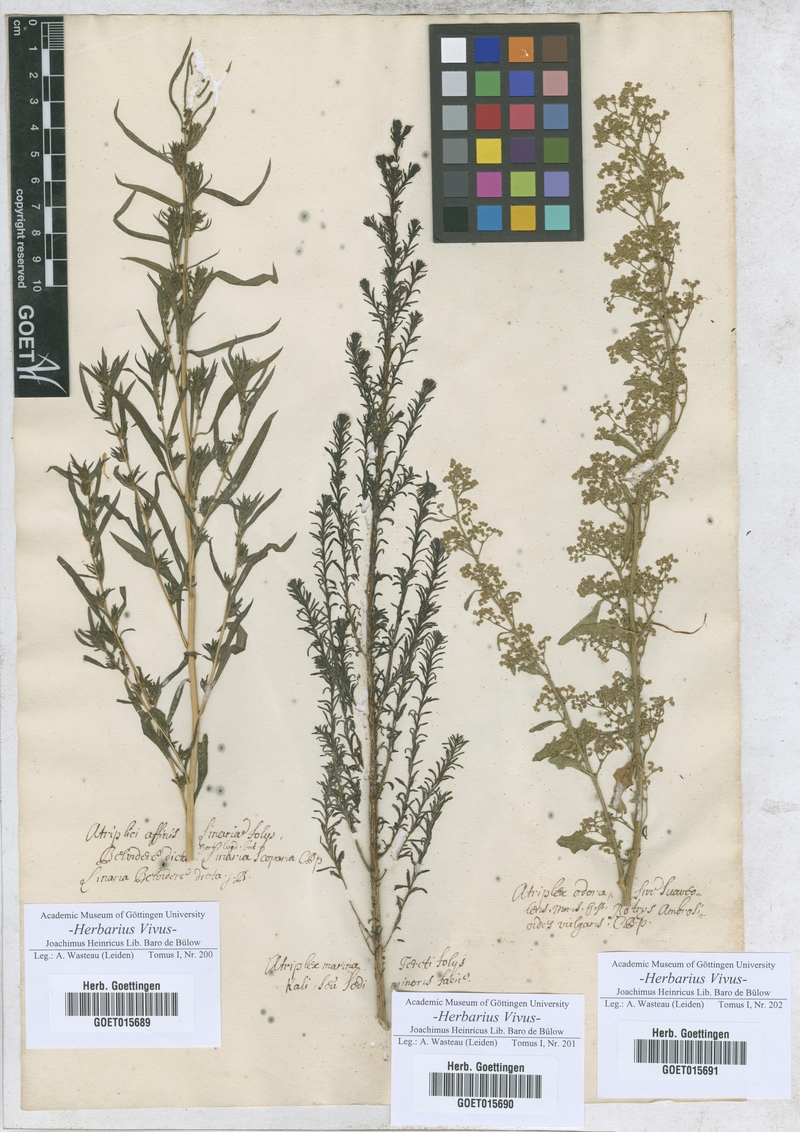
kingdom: Plantae
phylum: Tracheophyta
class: Magnoliopsida
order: Lamiales
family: Plantaginaceae
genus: Linaria
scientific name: Linaria
